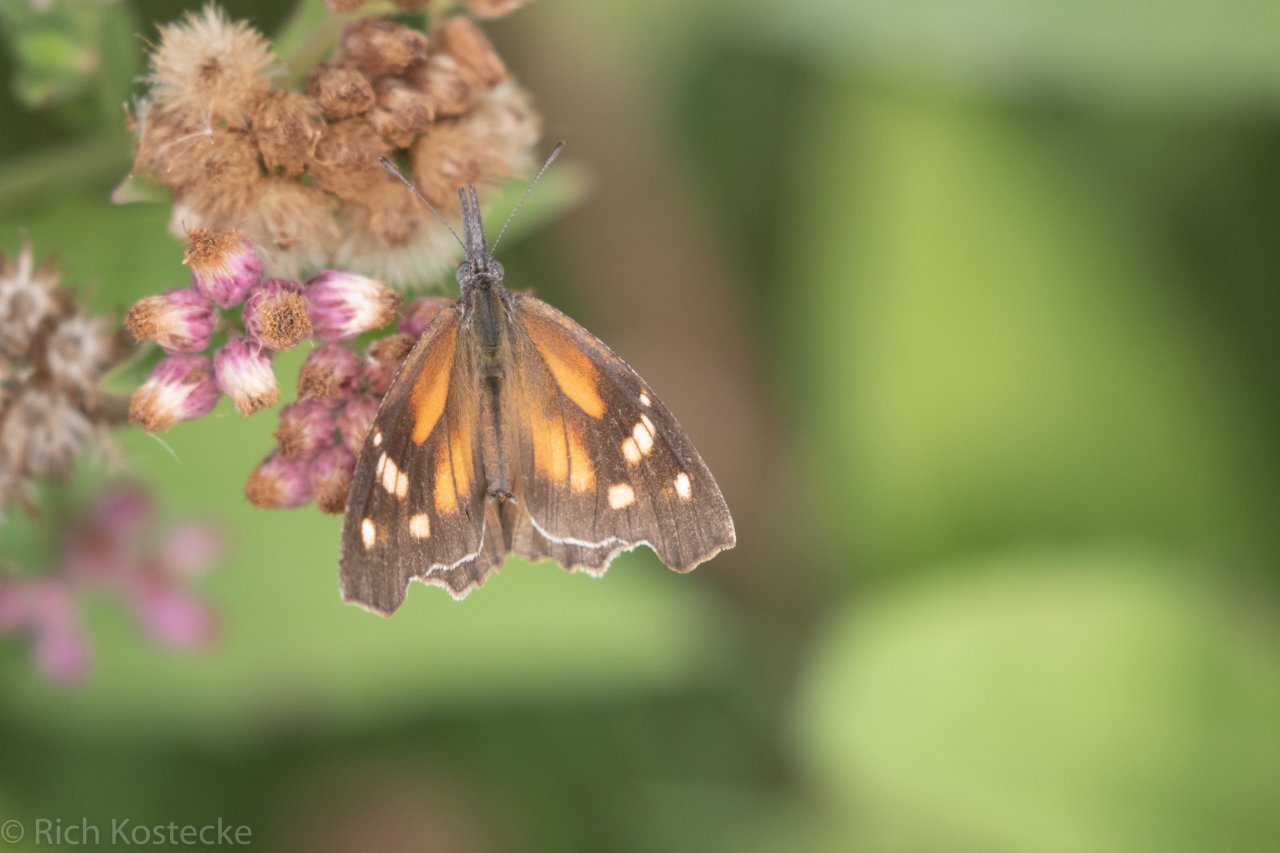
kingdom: Animalia
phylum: Arthropoda
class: Insecta
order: Lepidoptera
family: Nymphalidae
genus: Libytheana
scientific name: Libytheana carinenta
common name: American Snout
